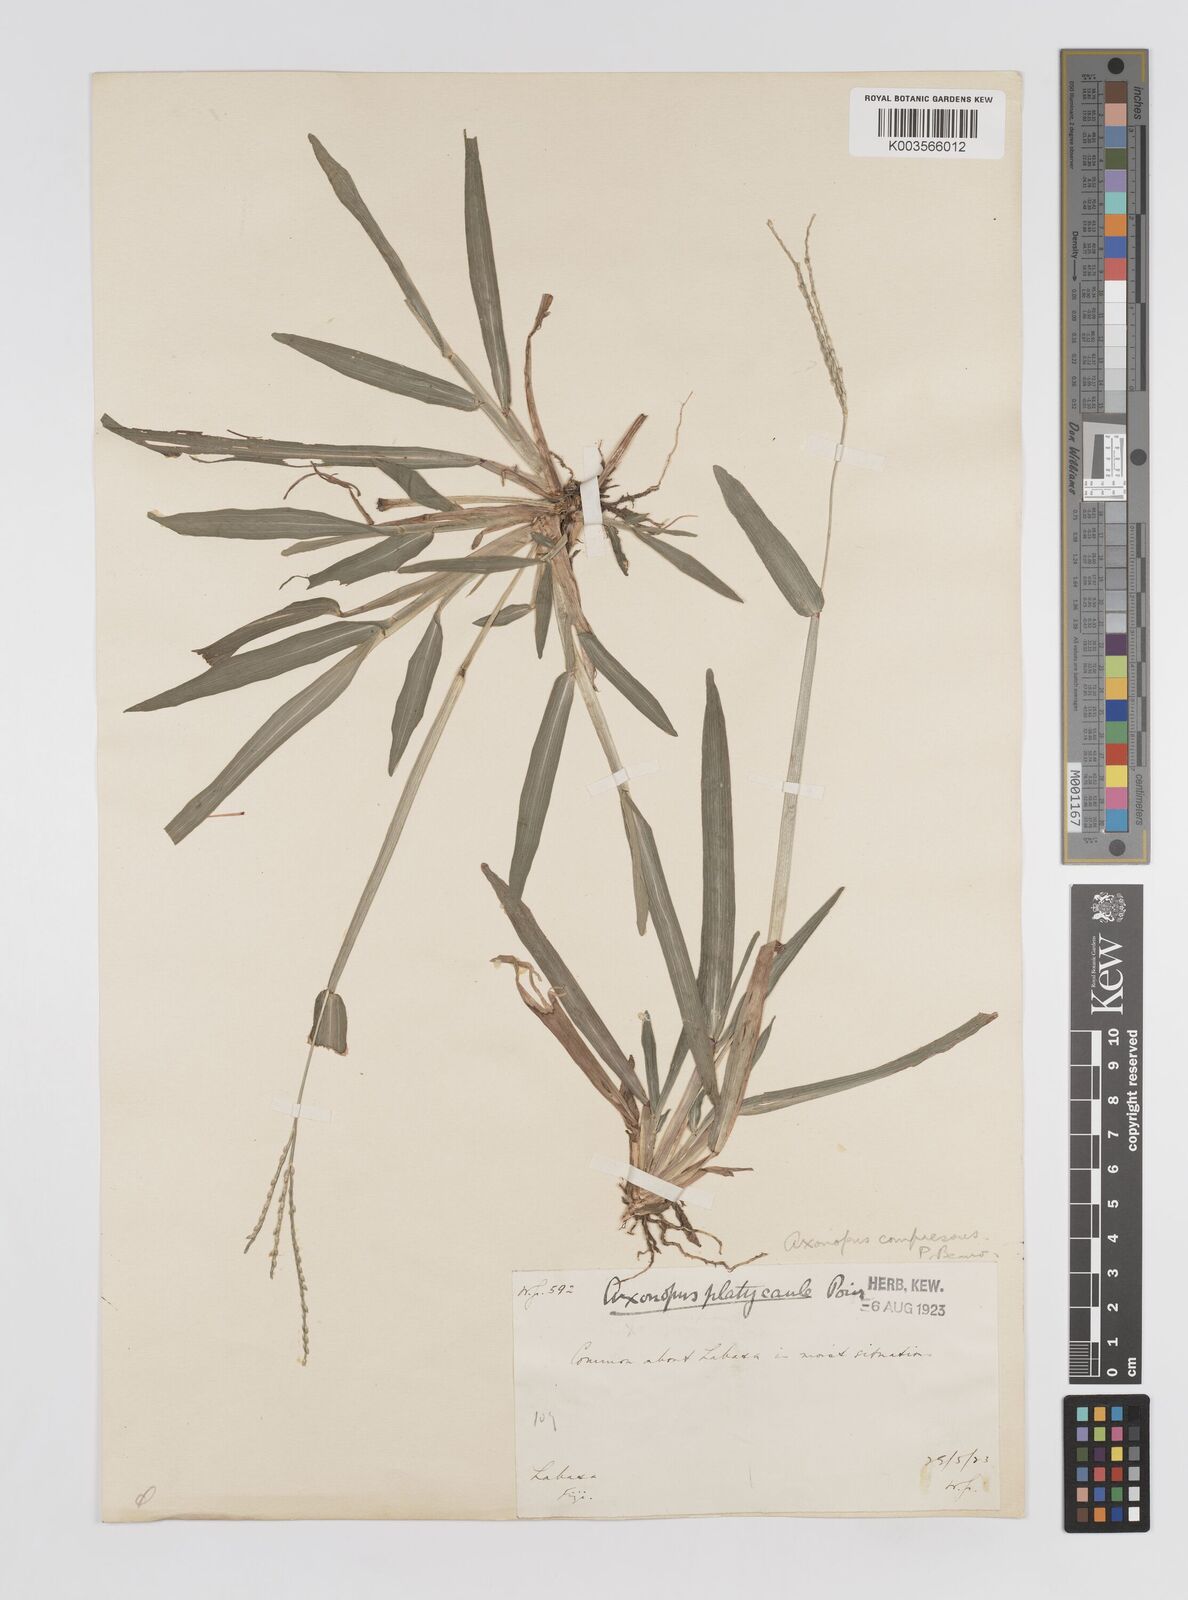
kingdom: Plantae
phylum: Tracheophyta
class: Liliopsida
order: Poales
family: Poaceae
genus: Axonopus
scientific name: Axonopus compressus
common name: American carpet grass
